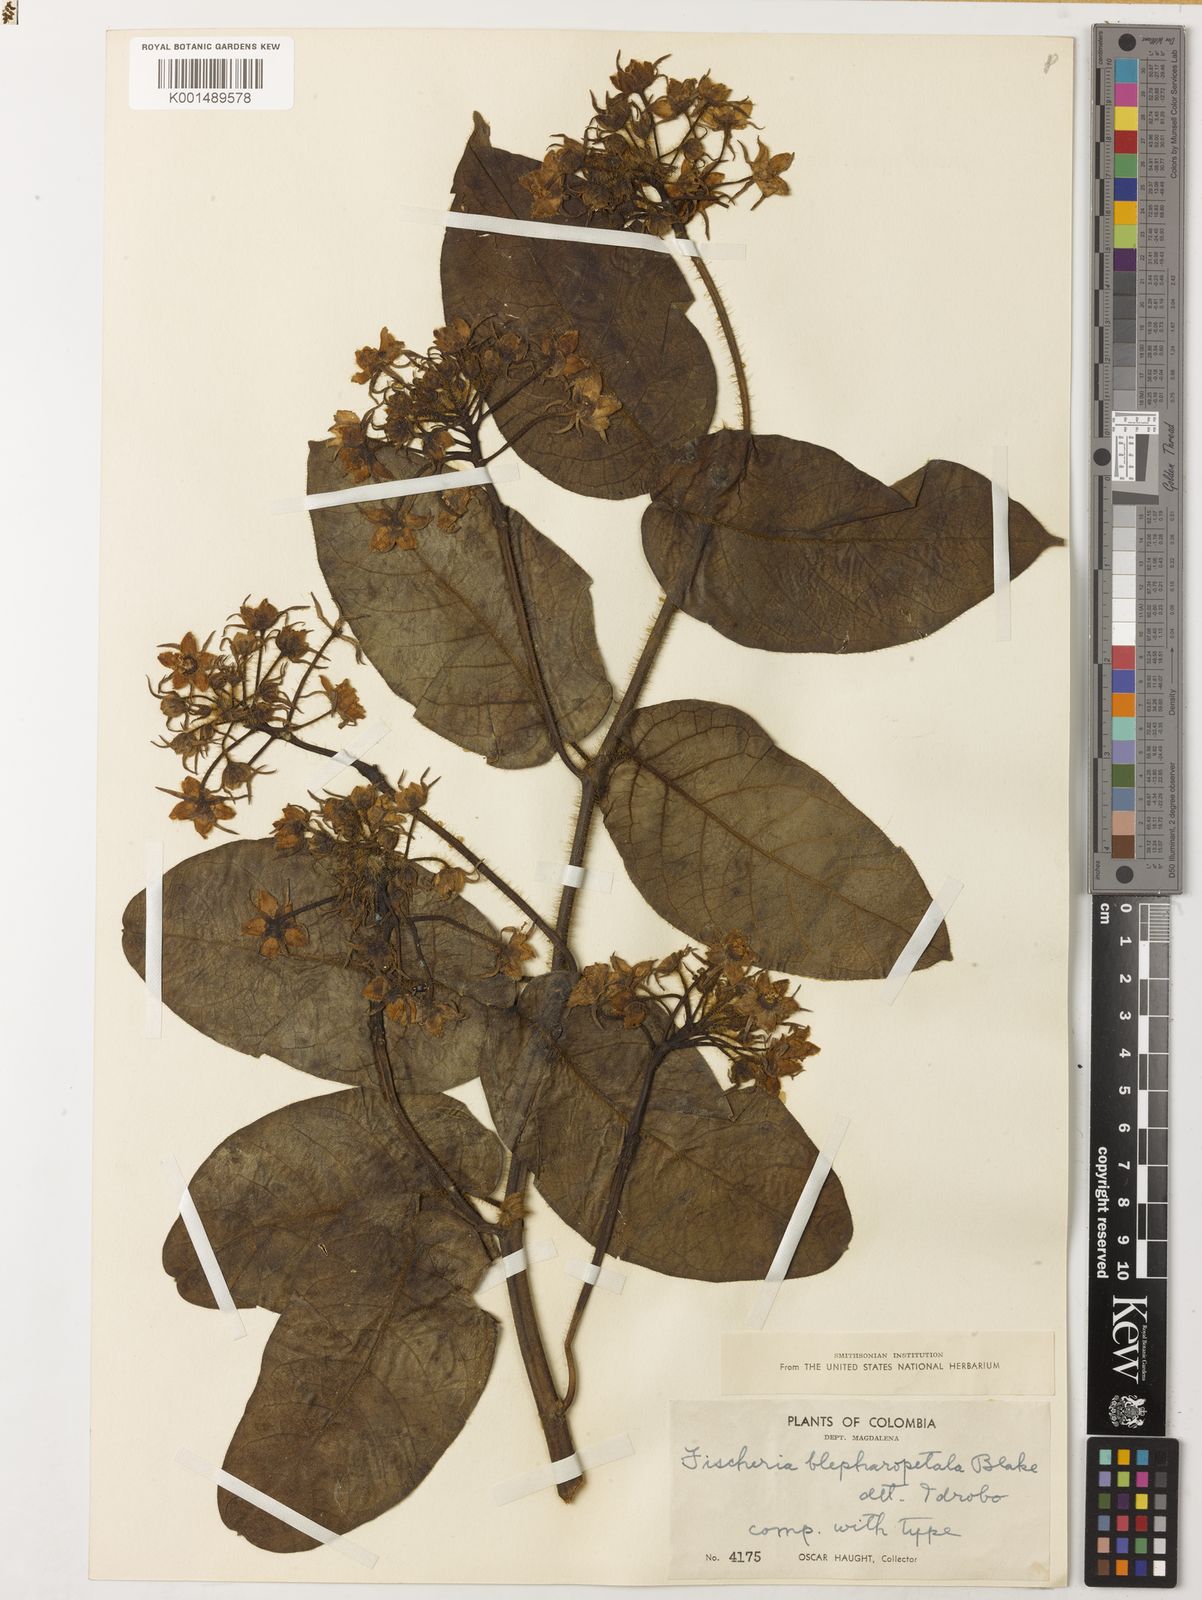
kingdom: Plantae
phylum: Tracheophyta
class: Magnoliopsida
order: Gentianales
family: Apocynaceae
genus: Fischeria
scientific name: Fischeria billbergiana
